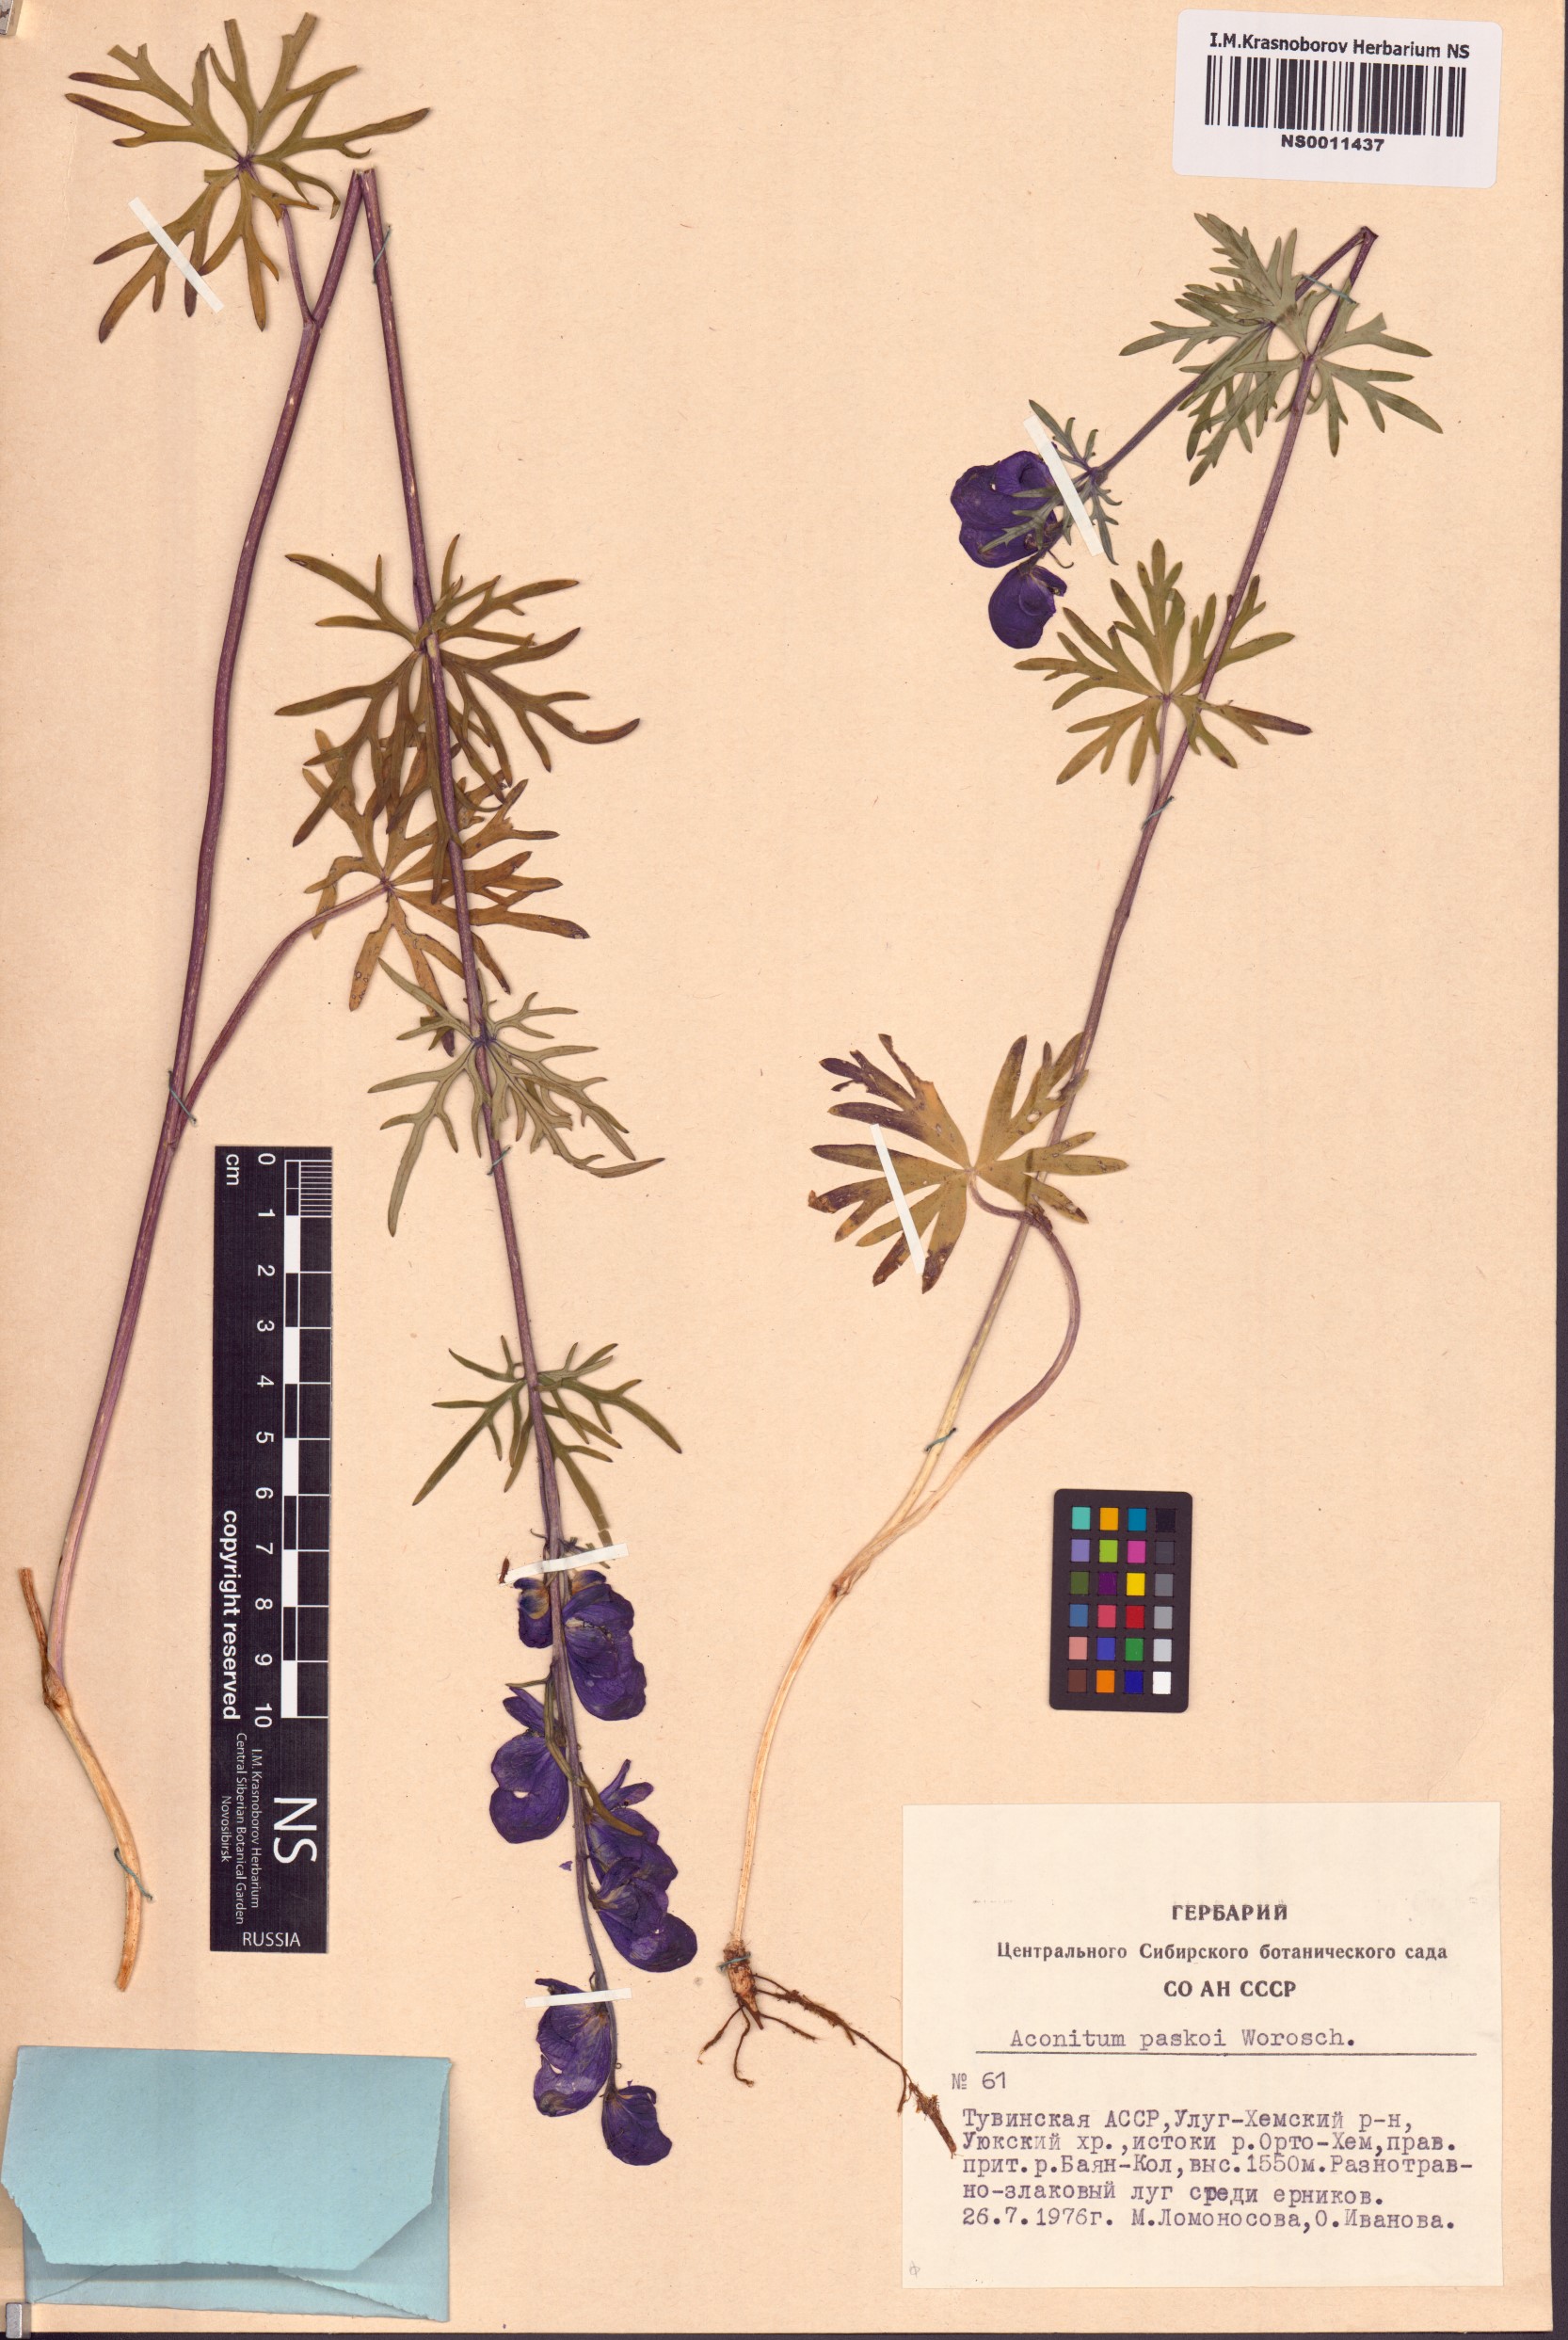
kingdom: Plantae
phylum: Tracheophyta
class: Magnoliopsida
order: Ranunculales
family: Ranunculaceae
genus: Aconitum
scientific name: Aconitum pascoi
